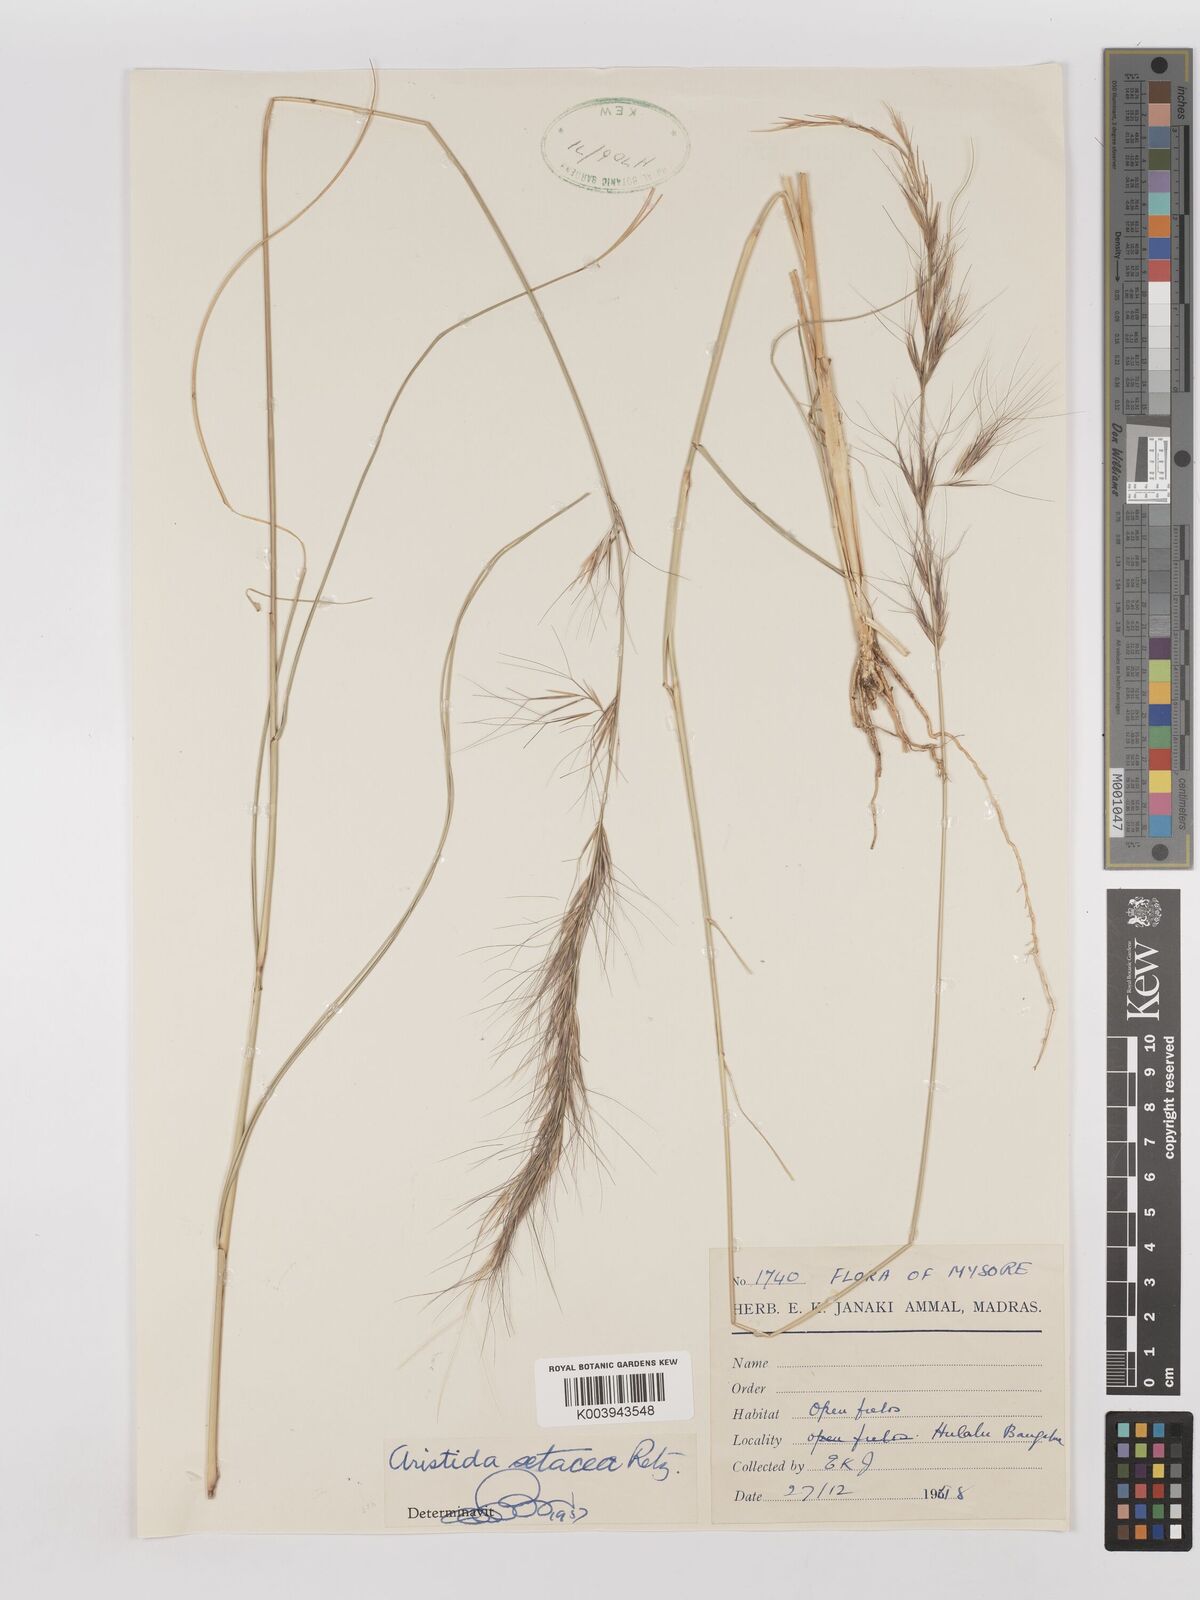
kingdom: Plantae
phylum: Tracheophyta
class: Liliopsida
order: Poales
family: Poaceae
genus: Aristida
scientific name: Aristida setacea
